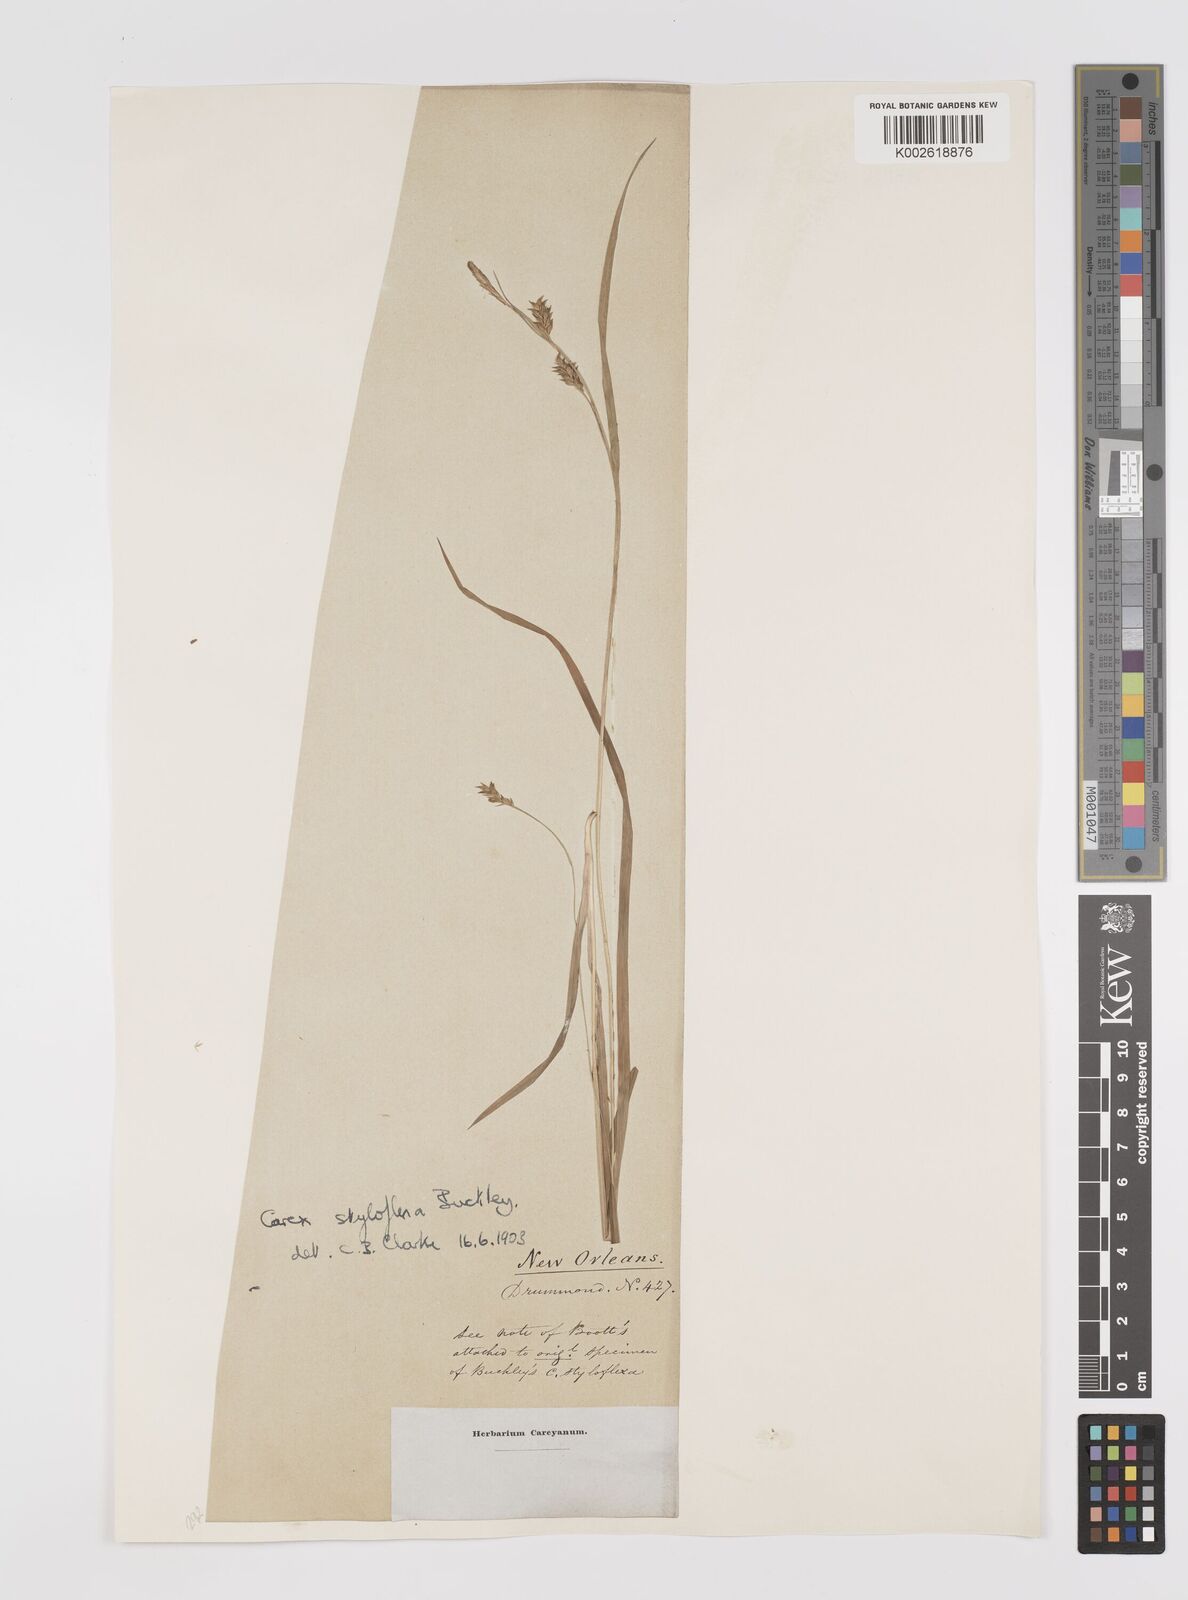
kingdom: Plantae
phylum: Tracheophyta
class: Liliopsida
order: Poales
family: Cyperaceae
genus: Carex
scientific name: Carex styloflexa
